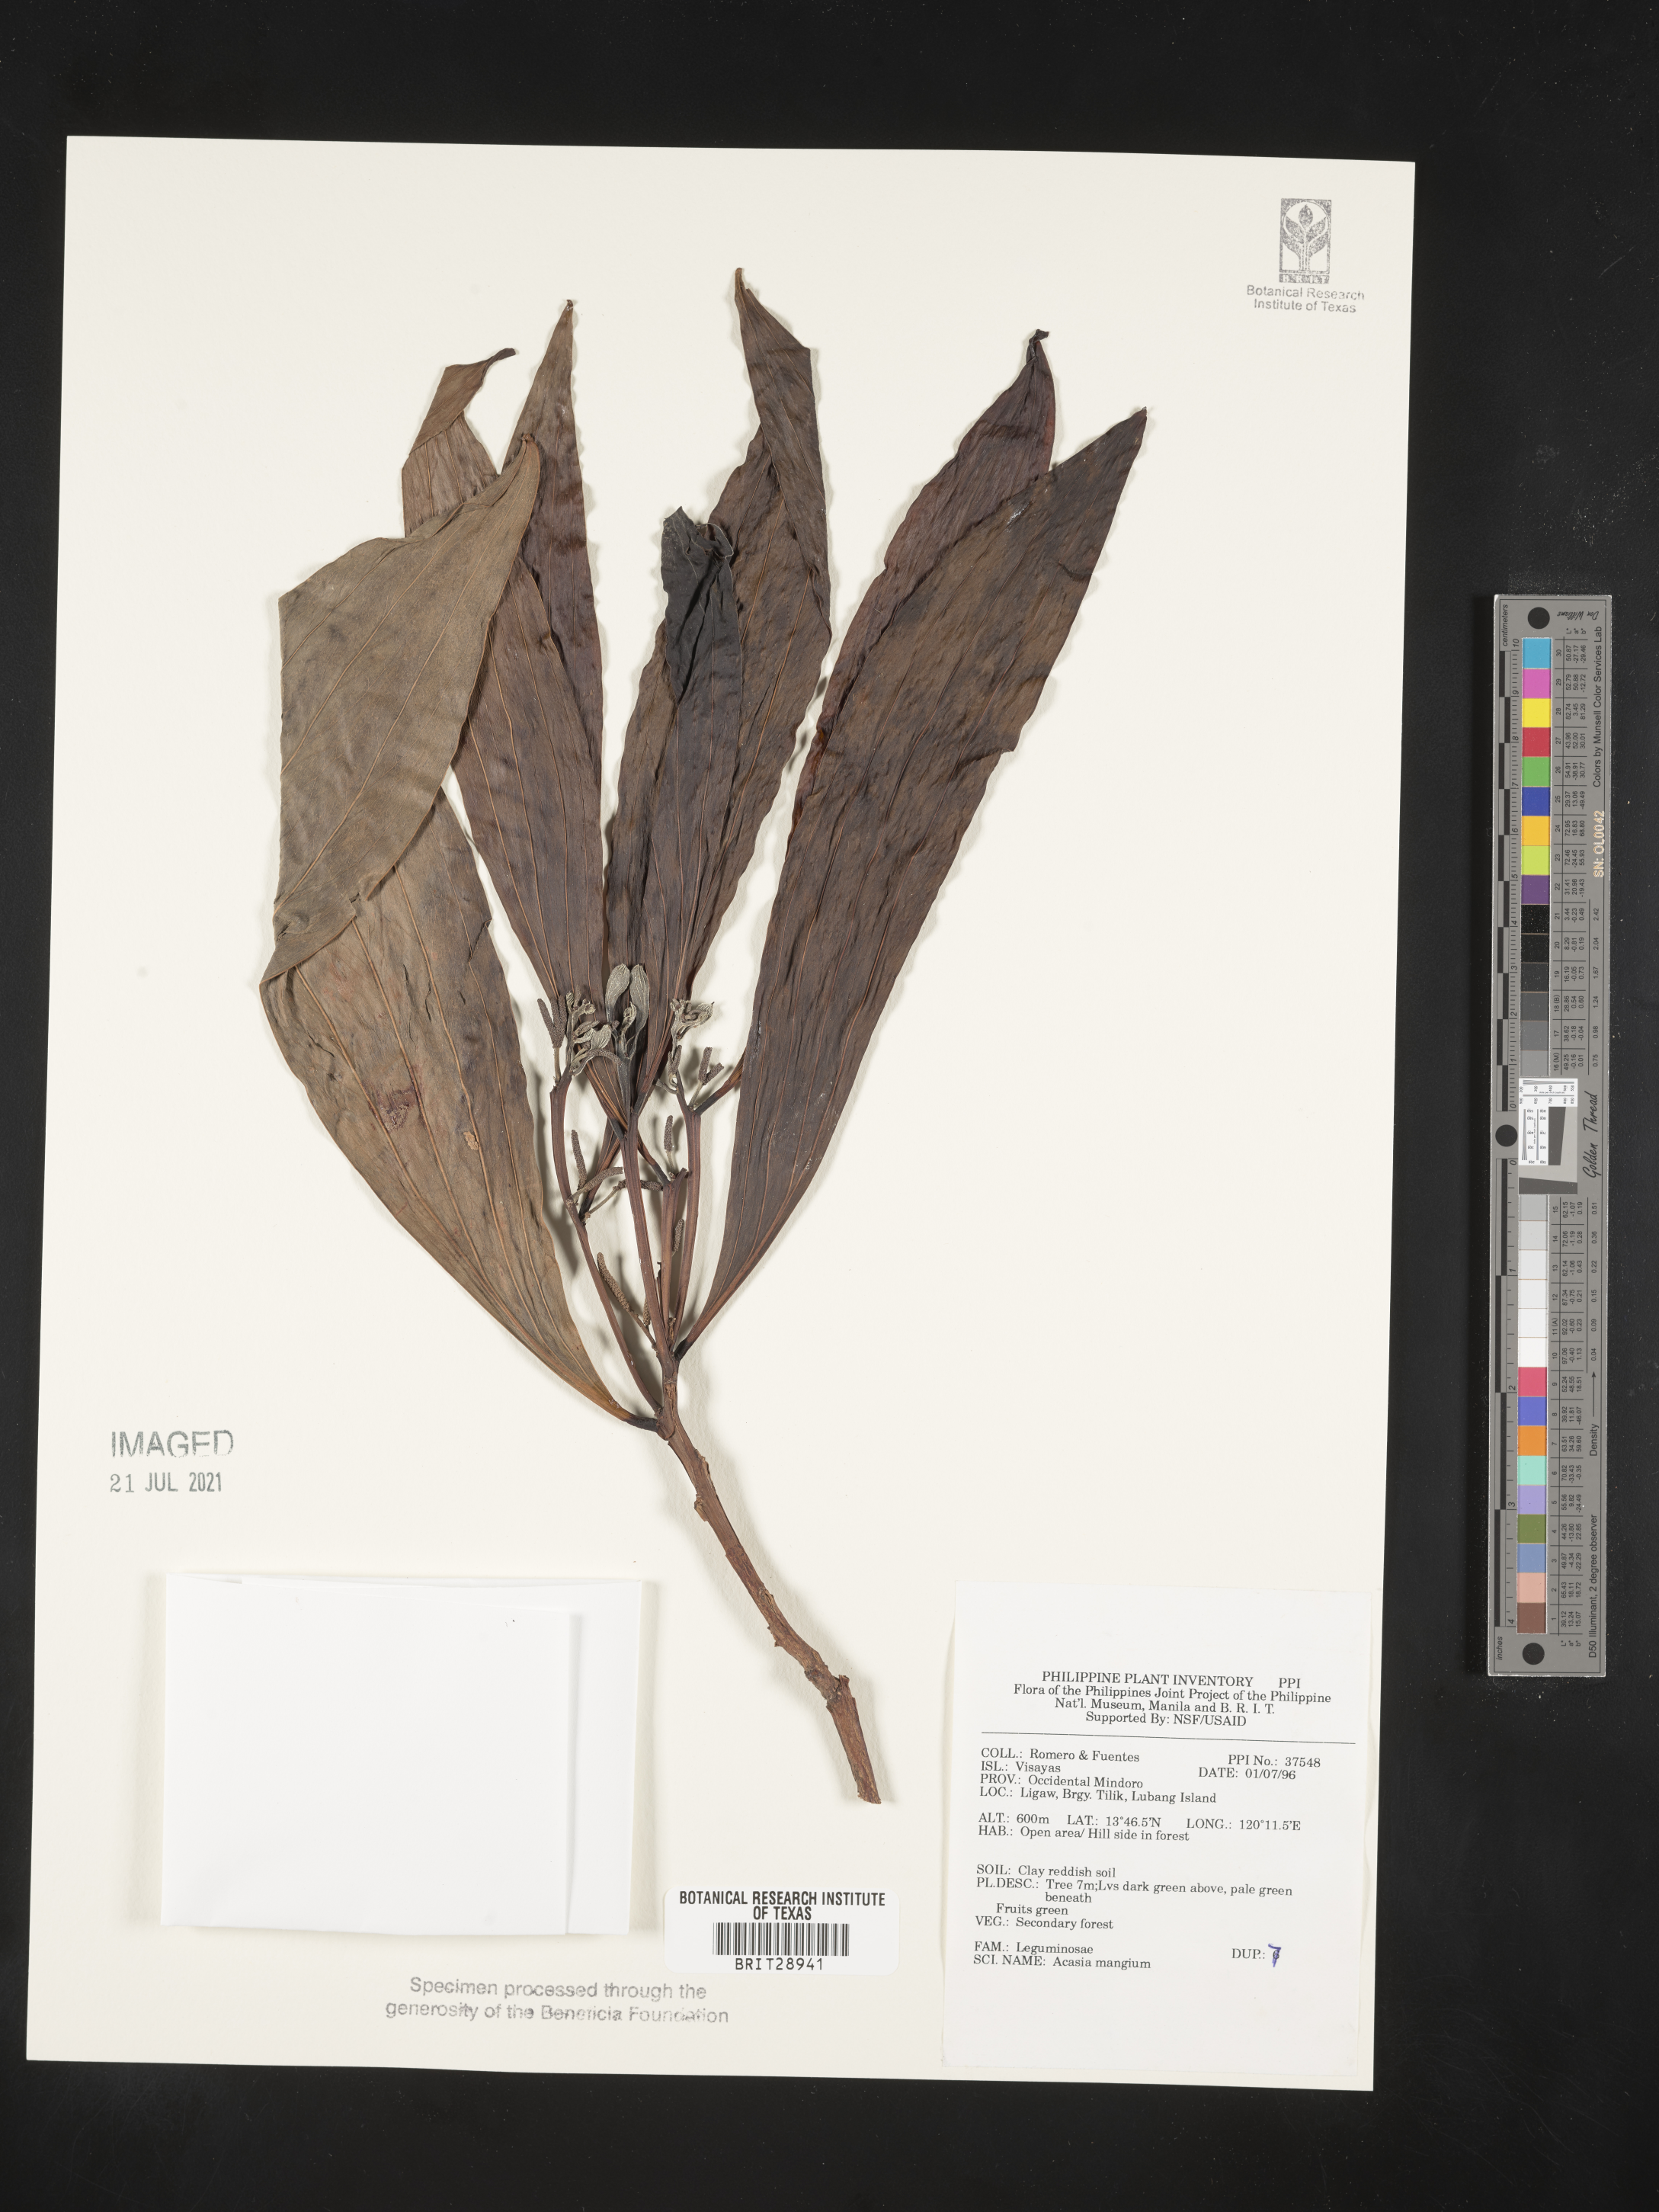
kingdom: Plantae
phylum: Tracheophyta
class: Magnoliopsida
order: Fabales
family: Fabaceae
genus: Acacia
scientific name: Acacia mangium
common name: Black wattle
